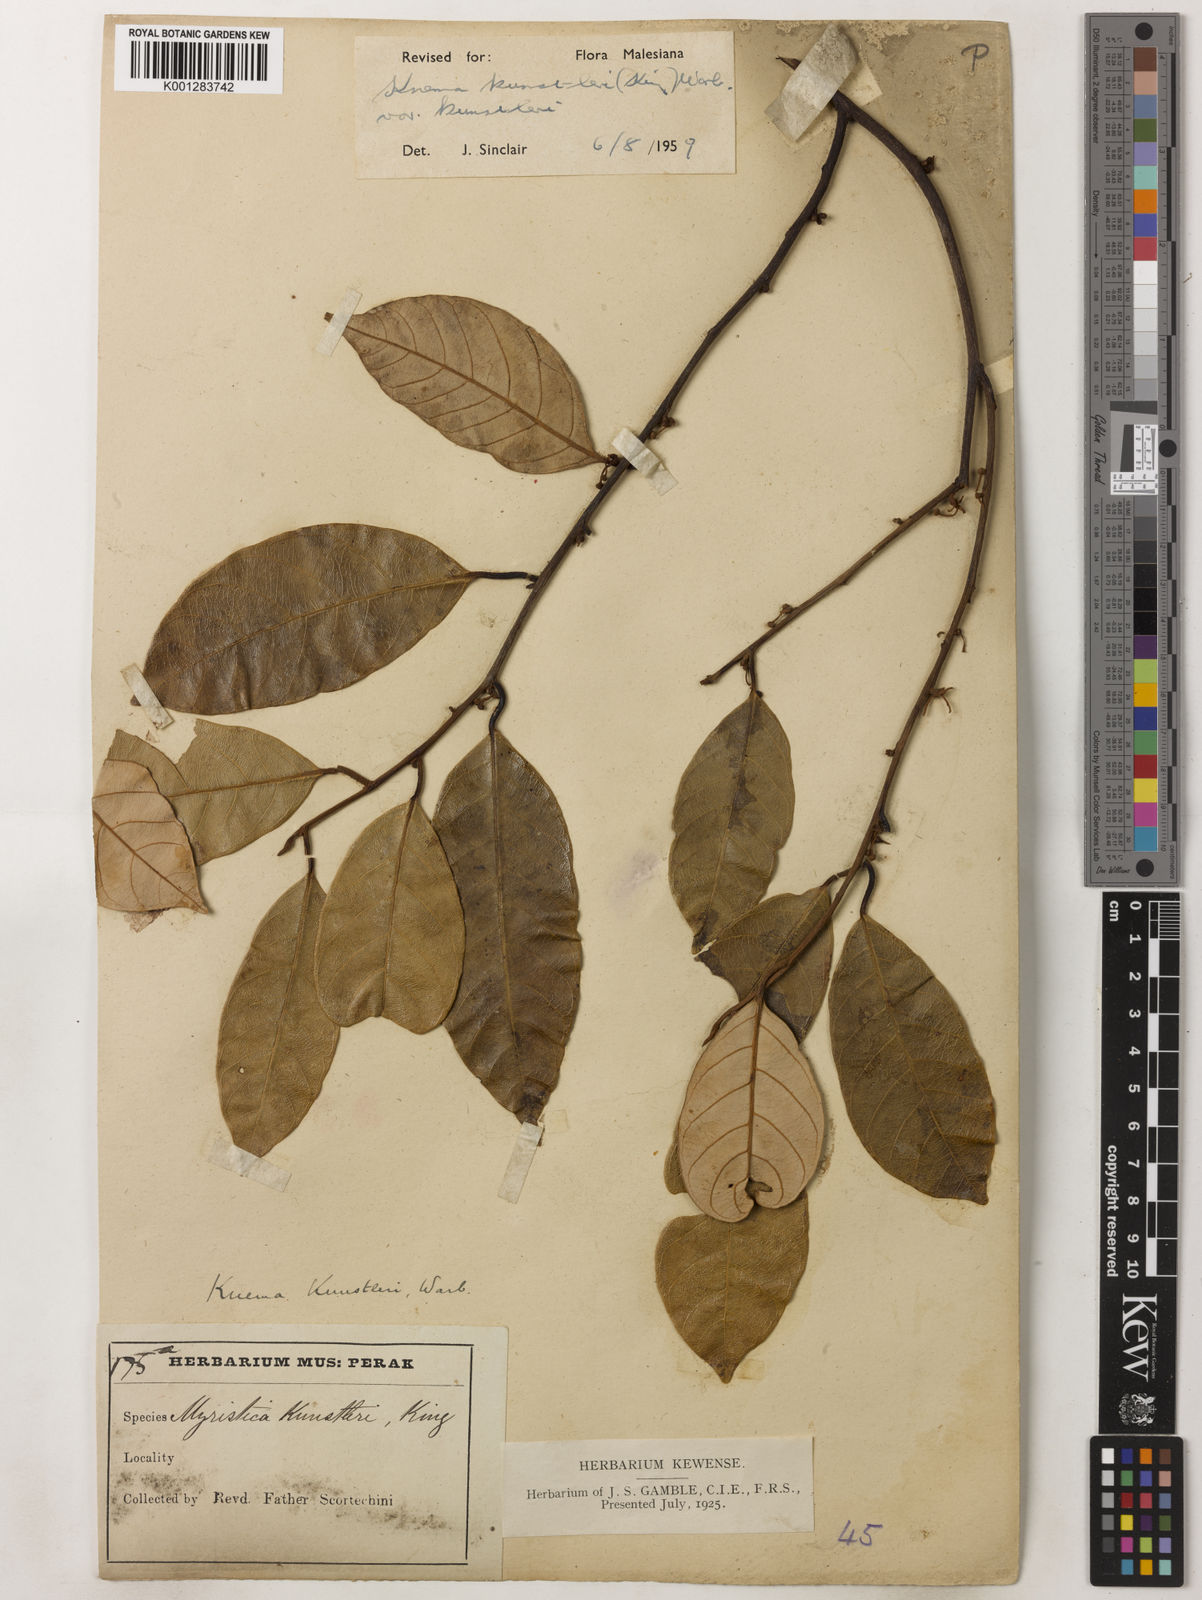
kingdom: Plantae
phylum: Tracheophyta
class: Magnoliopsida
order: Magnoliales
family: Myristicaceae
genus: Knema
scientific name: Knema kunstleri
